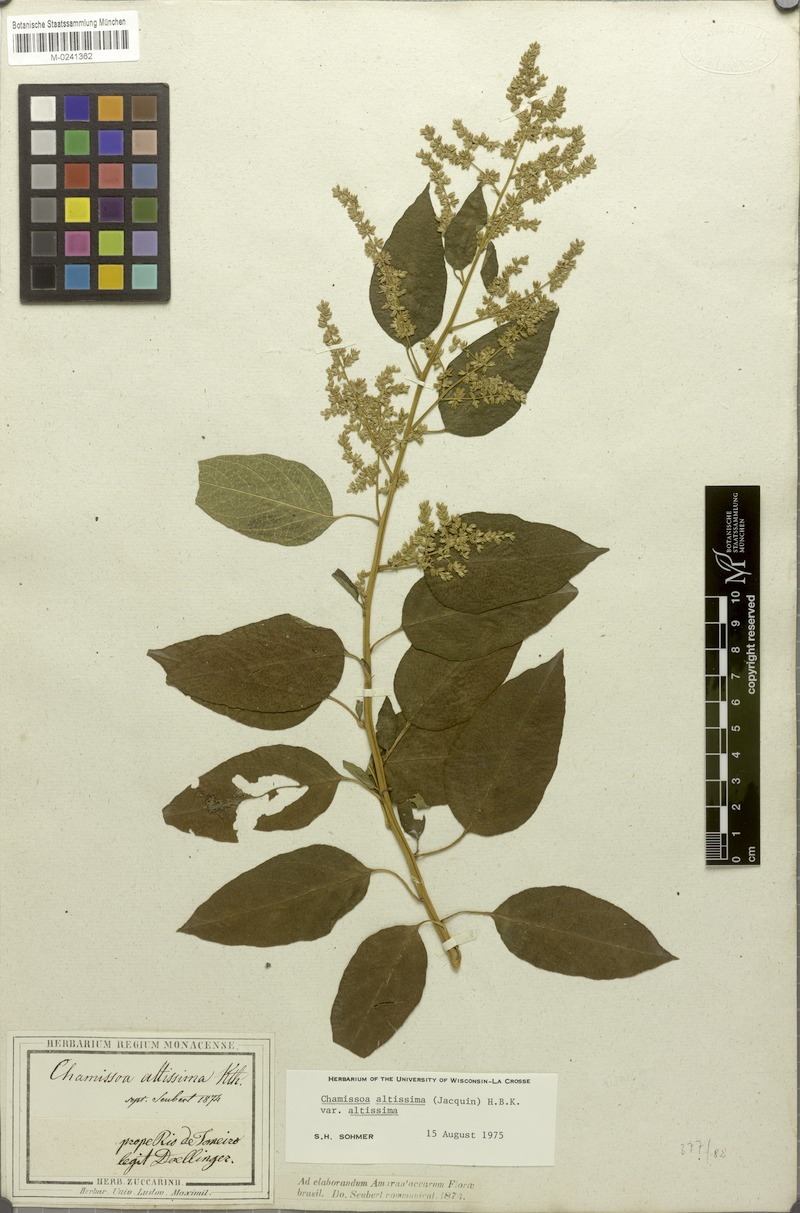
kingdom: Plantae
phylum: Tracheophyta
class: Magnoliopsida
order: Caryophyllales
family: Amaranthaceae
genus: Chamissoa
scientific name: Chamissoa altissima
